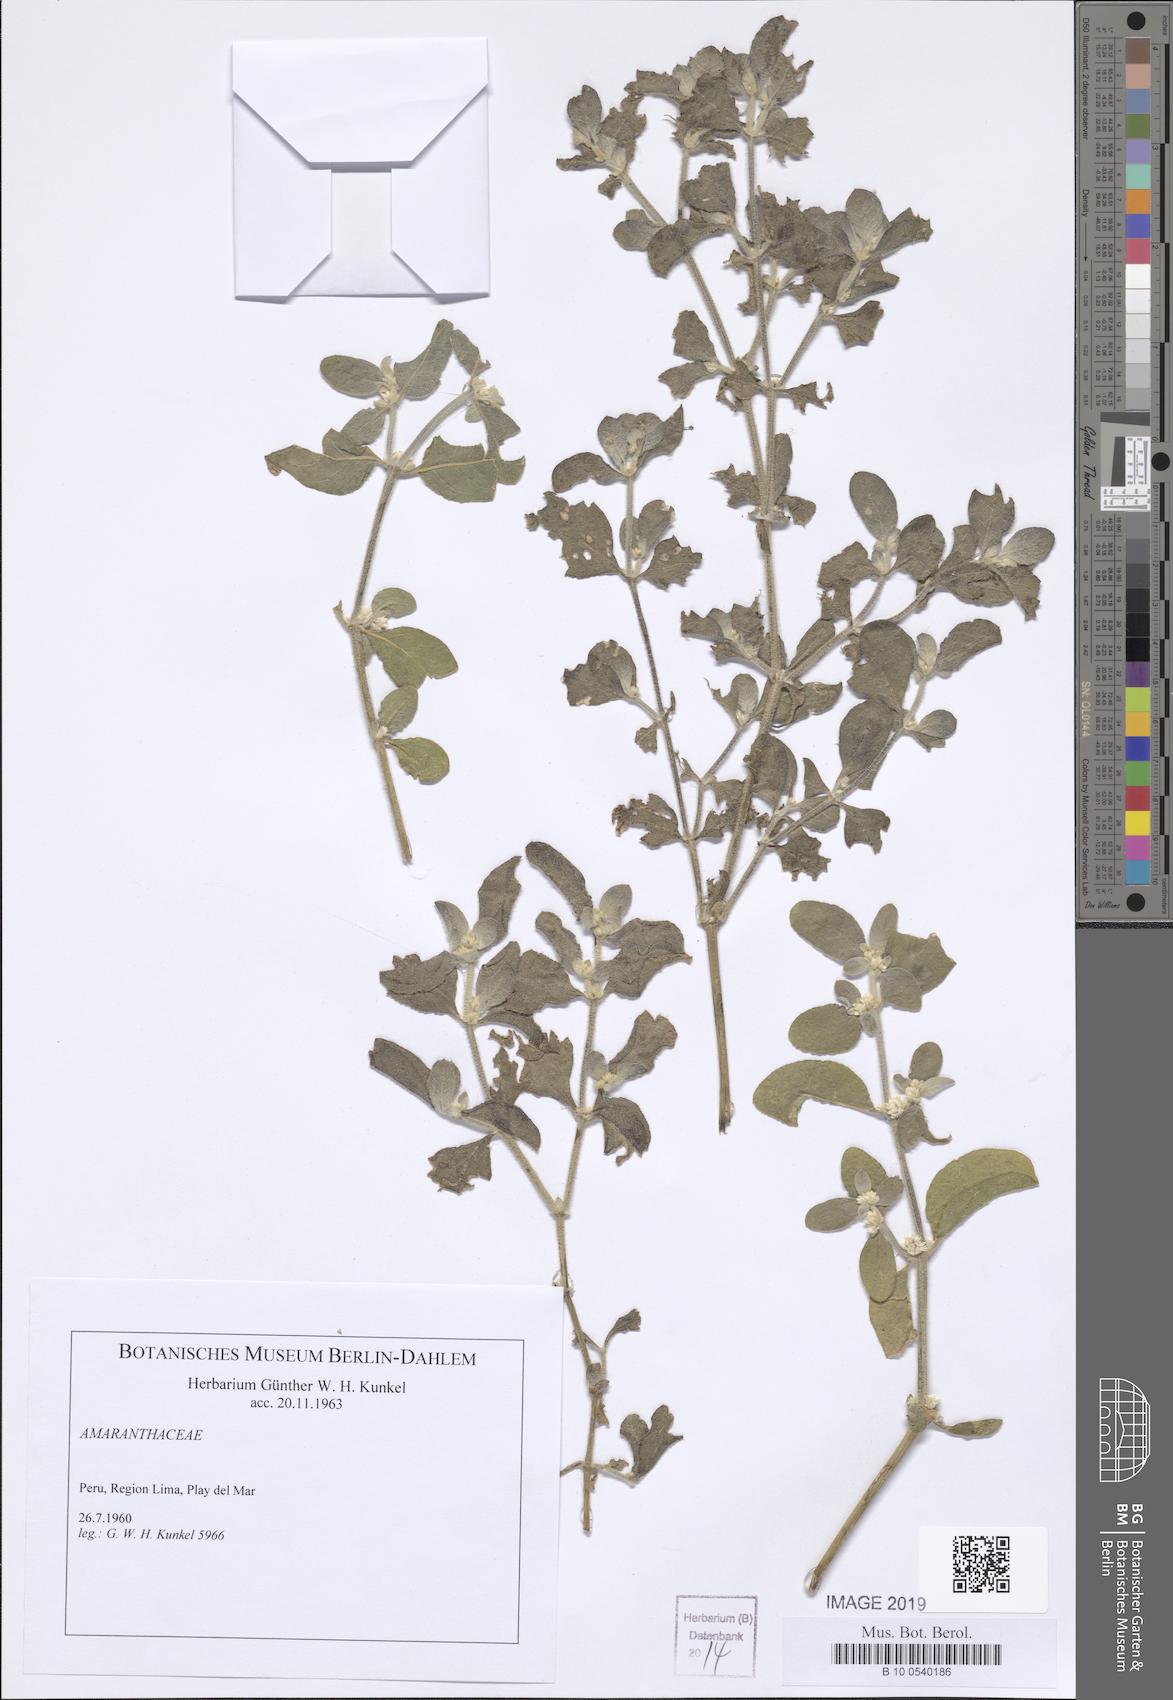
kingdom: Plantae
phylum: Tracheophyta
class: Magnoliopsida
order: Caryophyllales
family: Amaranthaceae
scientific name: Amaranthaceae
